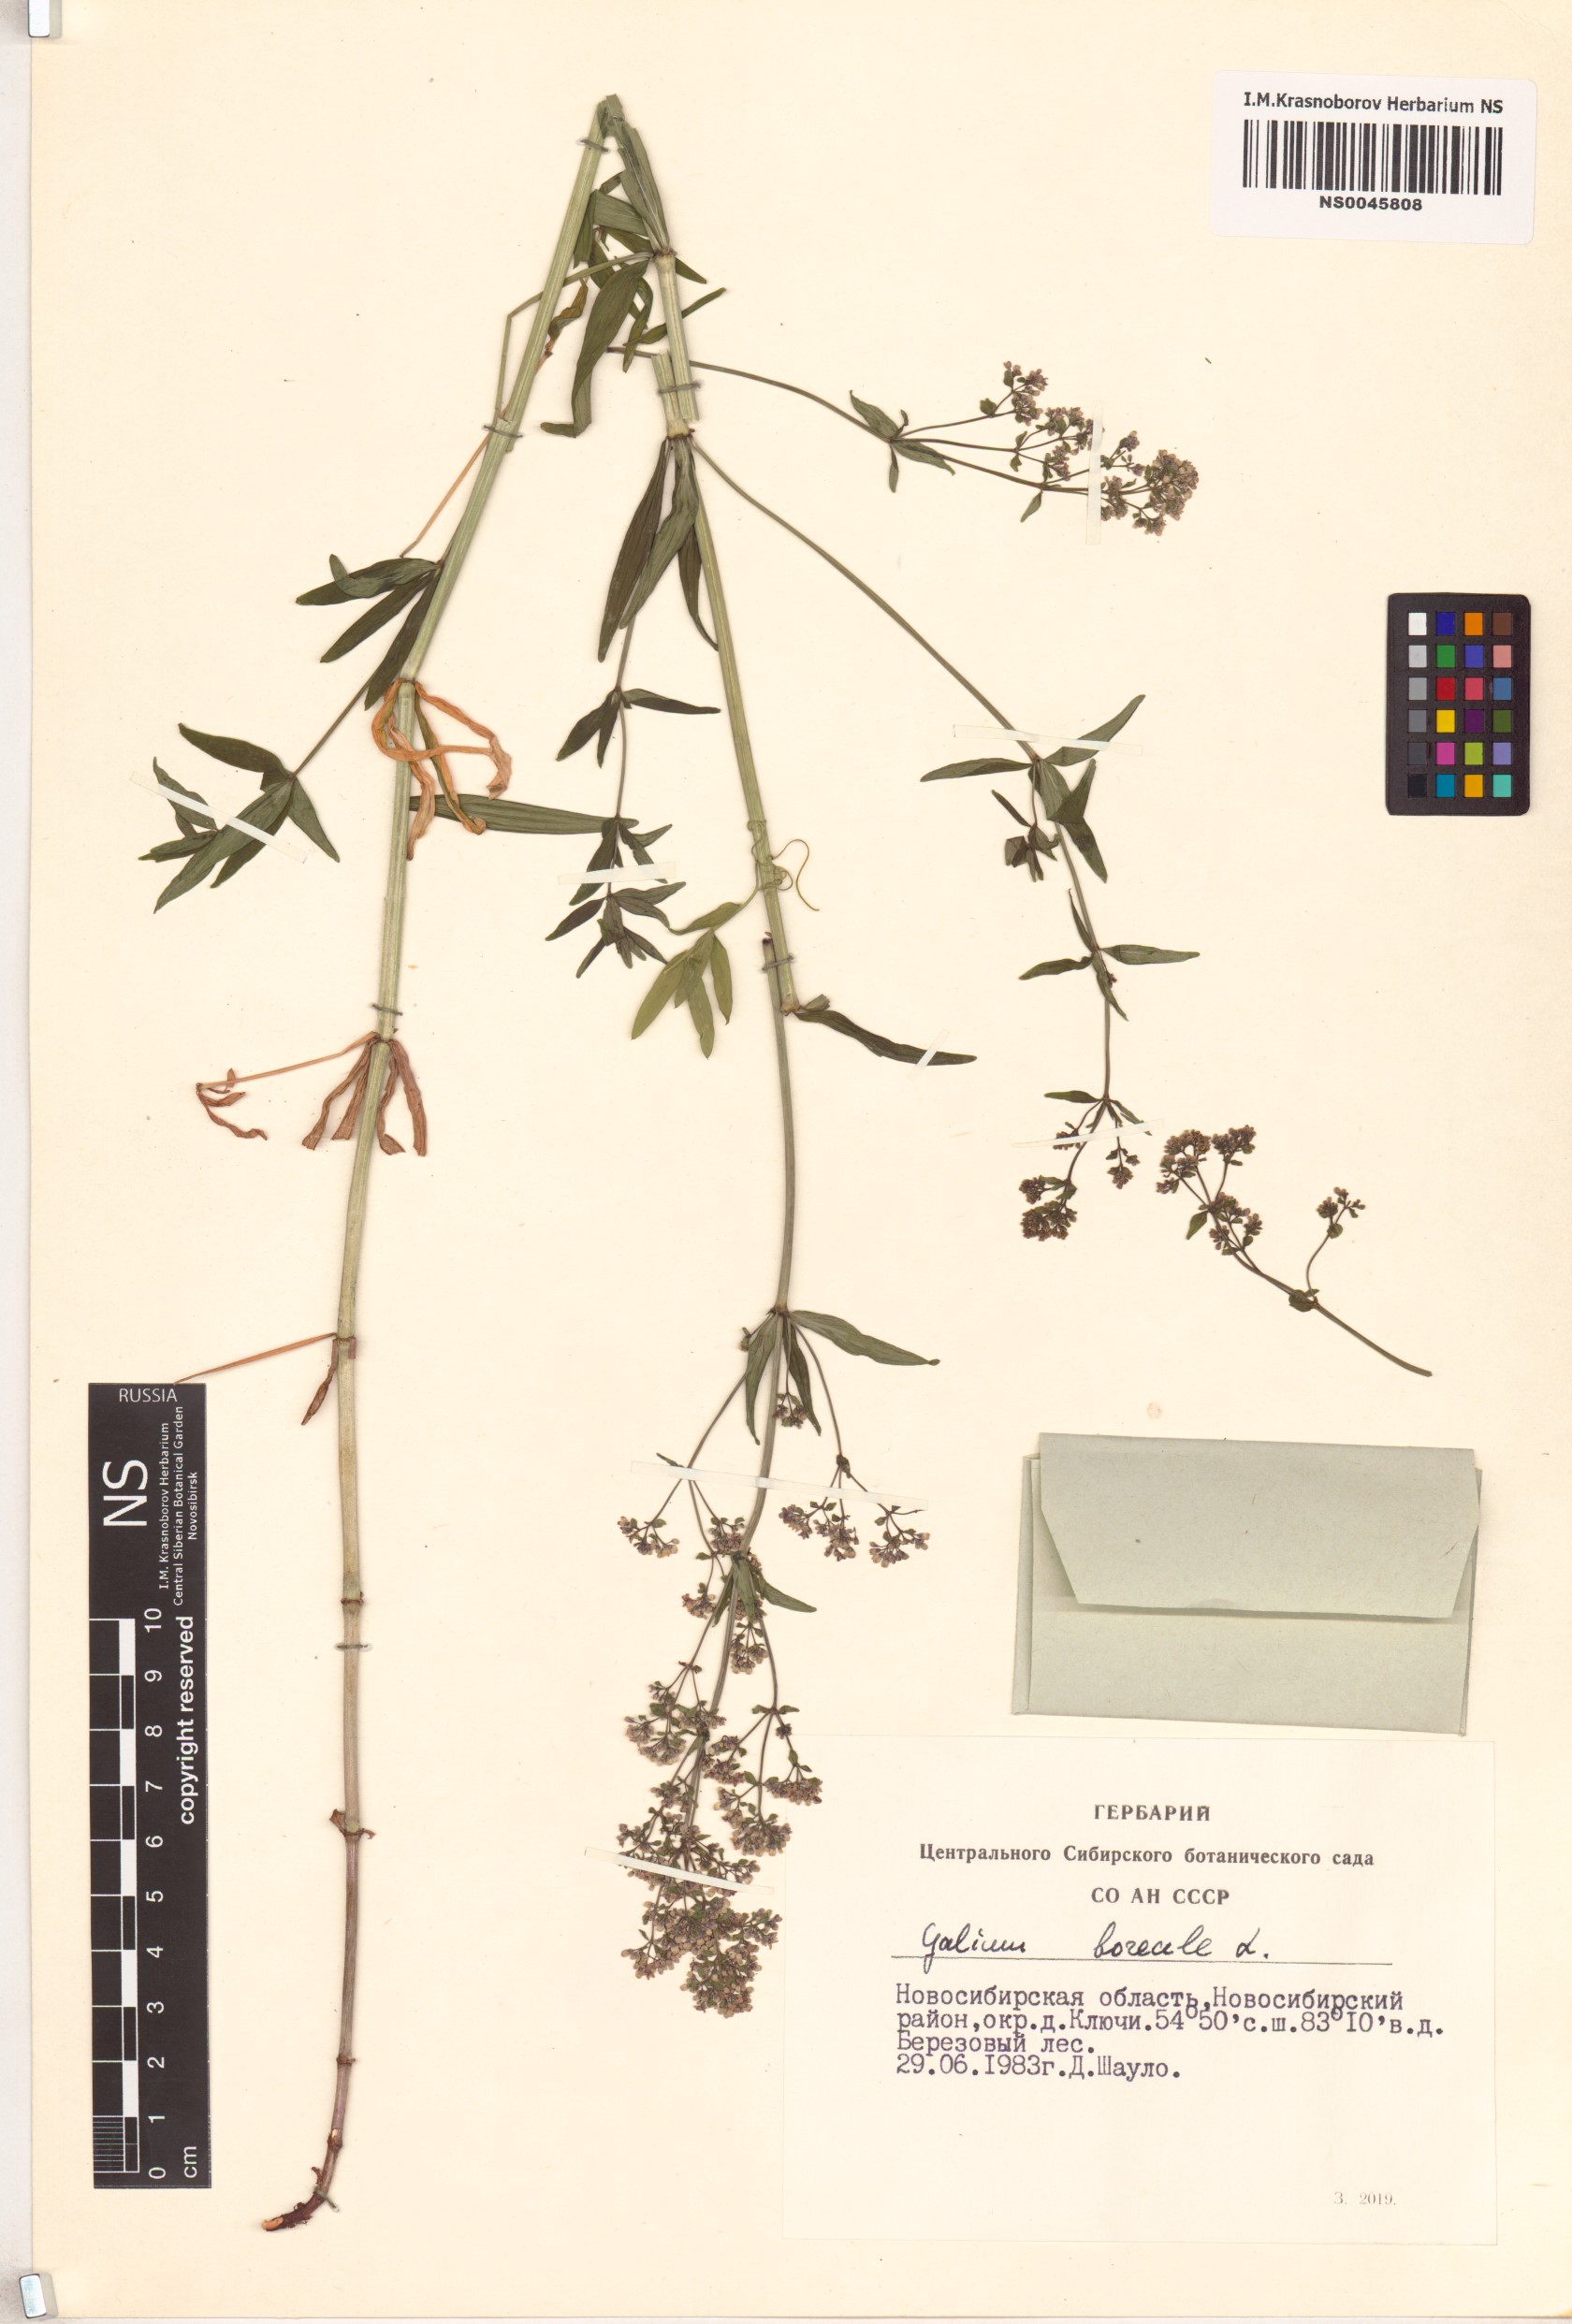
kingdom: Plantae
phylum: Tracheophyta
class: Magnoliopsida
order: Gentianales
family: Rubiaceae
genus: Galium
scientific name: Galium boreale
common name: Northern bedstraw
